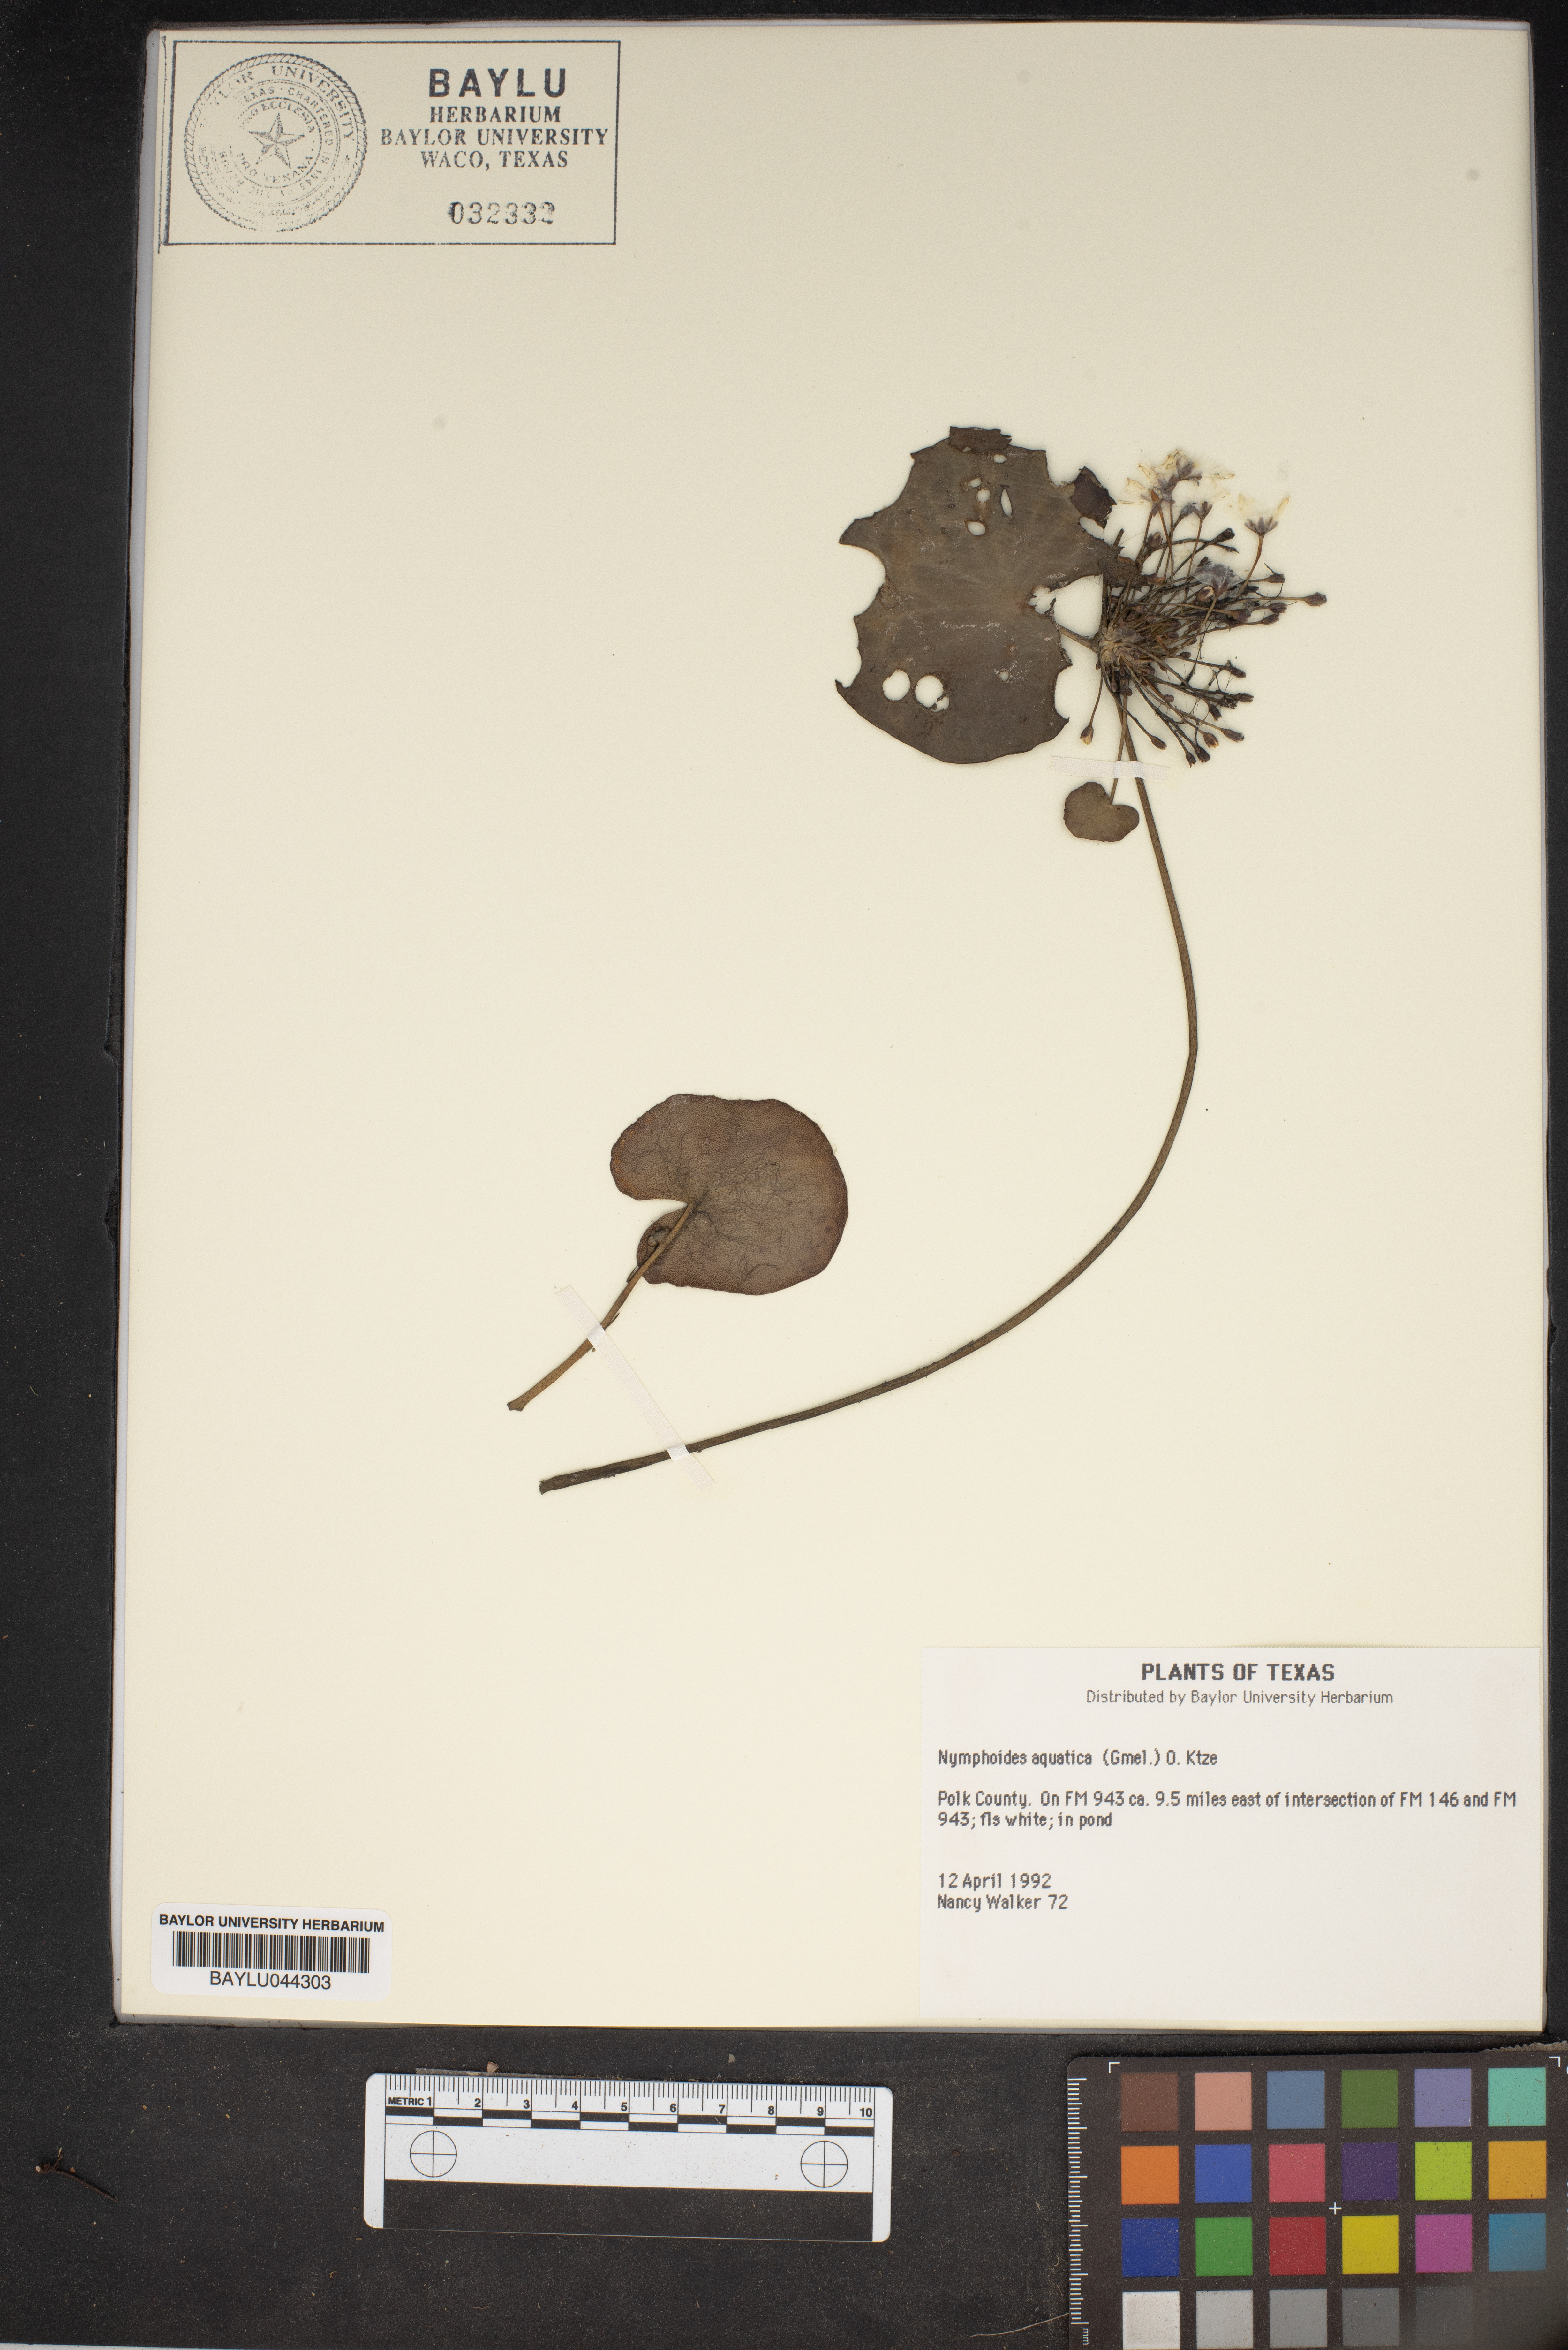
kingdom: Plantae
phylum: Tracheophyta
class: Magnoliopsida
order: Asterales
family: Menyanthaceae
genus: Nymphoides
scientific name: Nymphoides aquatica
